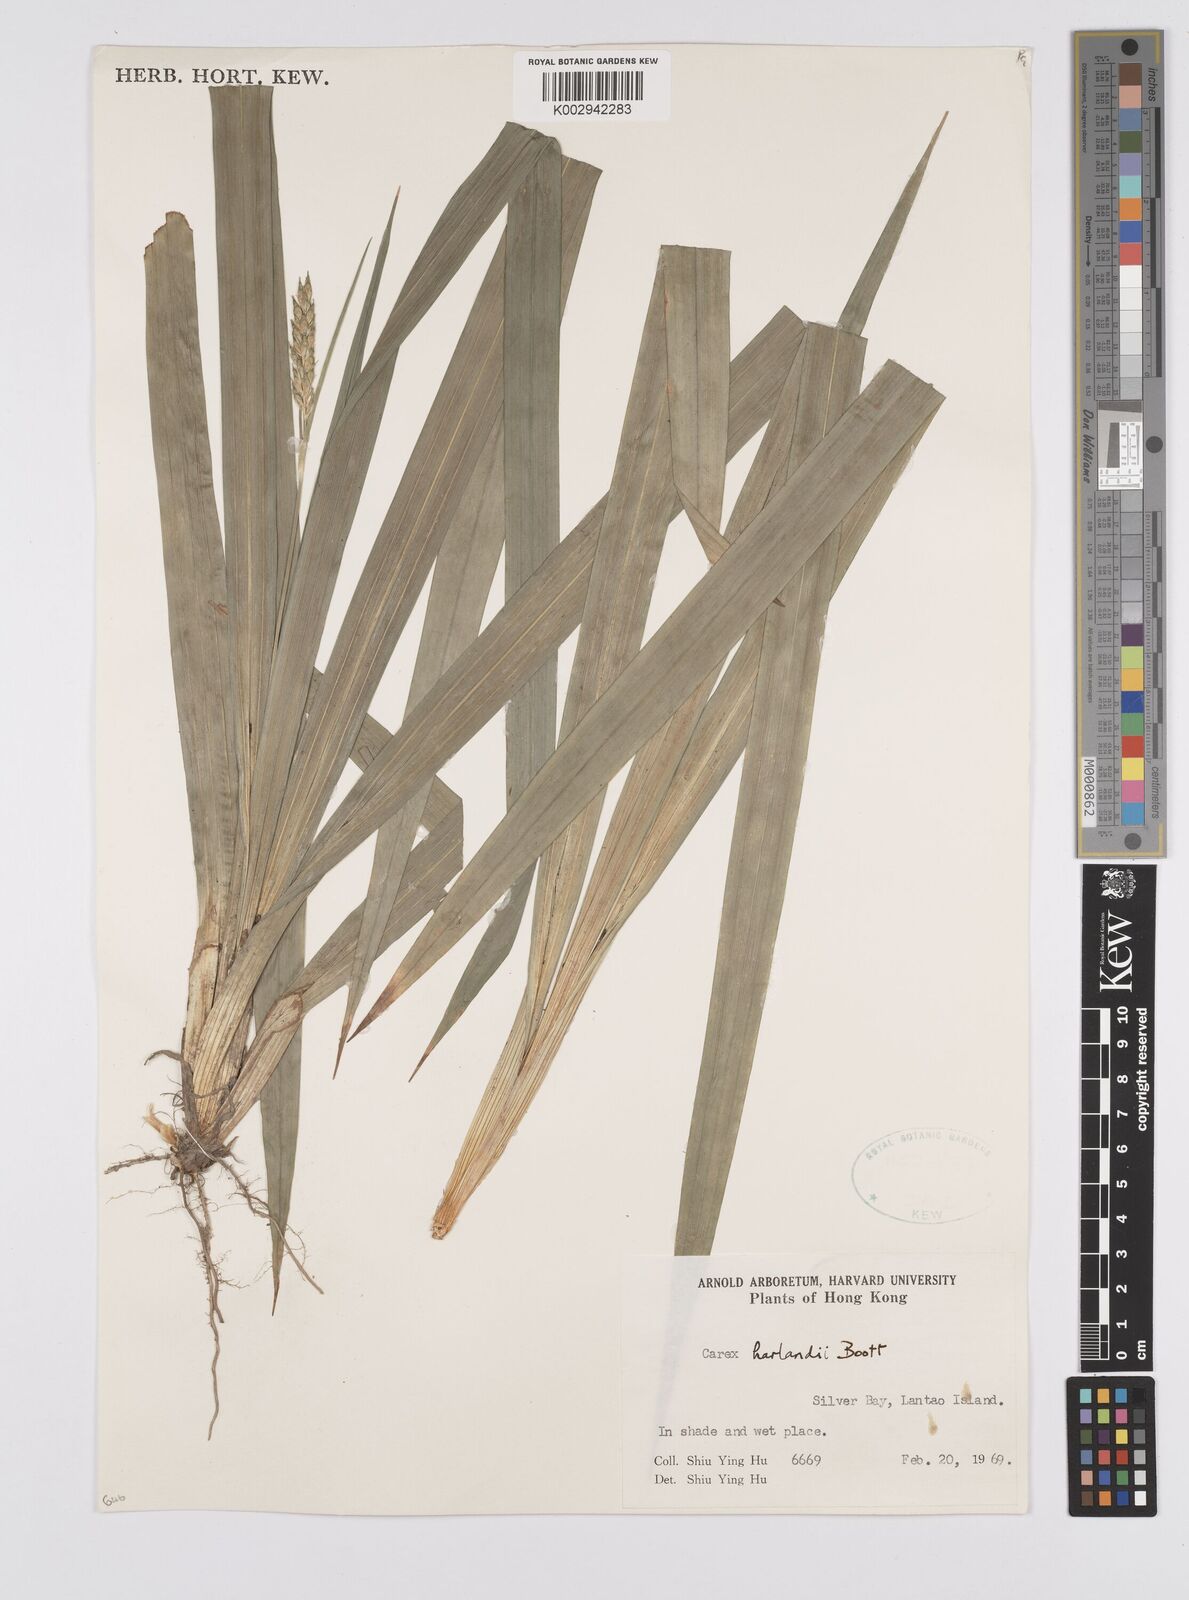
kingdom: Plantae
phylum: Tracheophyta
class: Liliopsida
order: Poales
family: Cyperaceae
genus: Carex
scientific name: Carex
